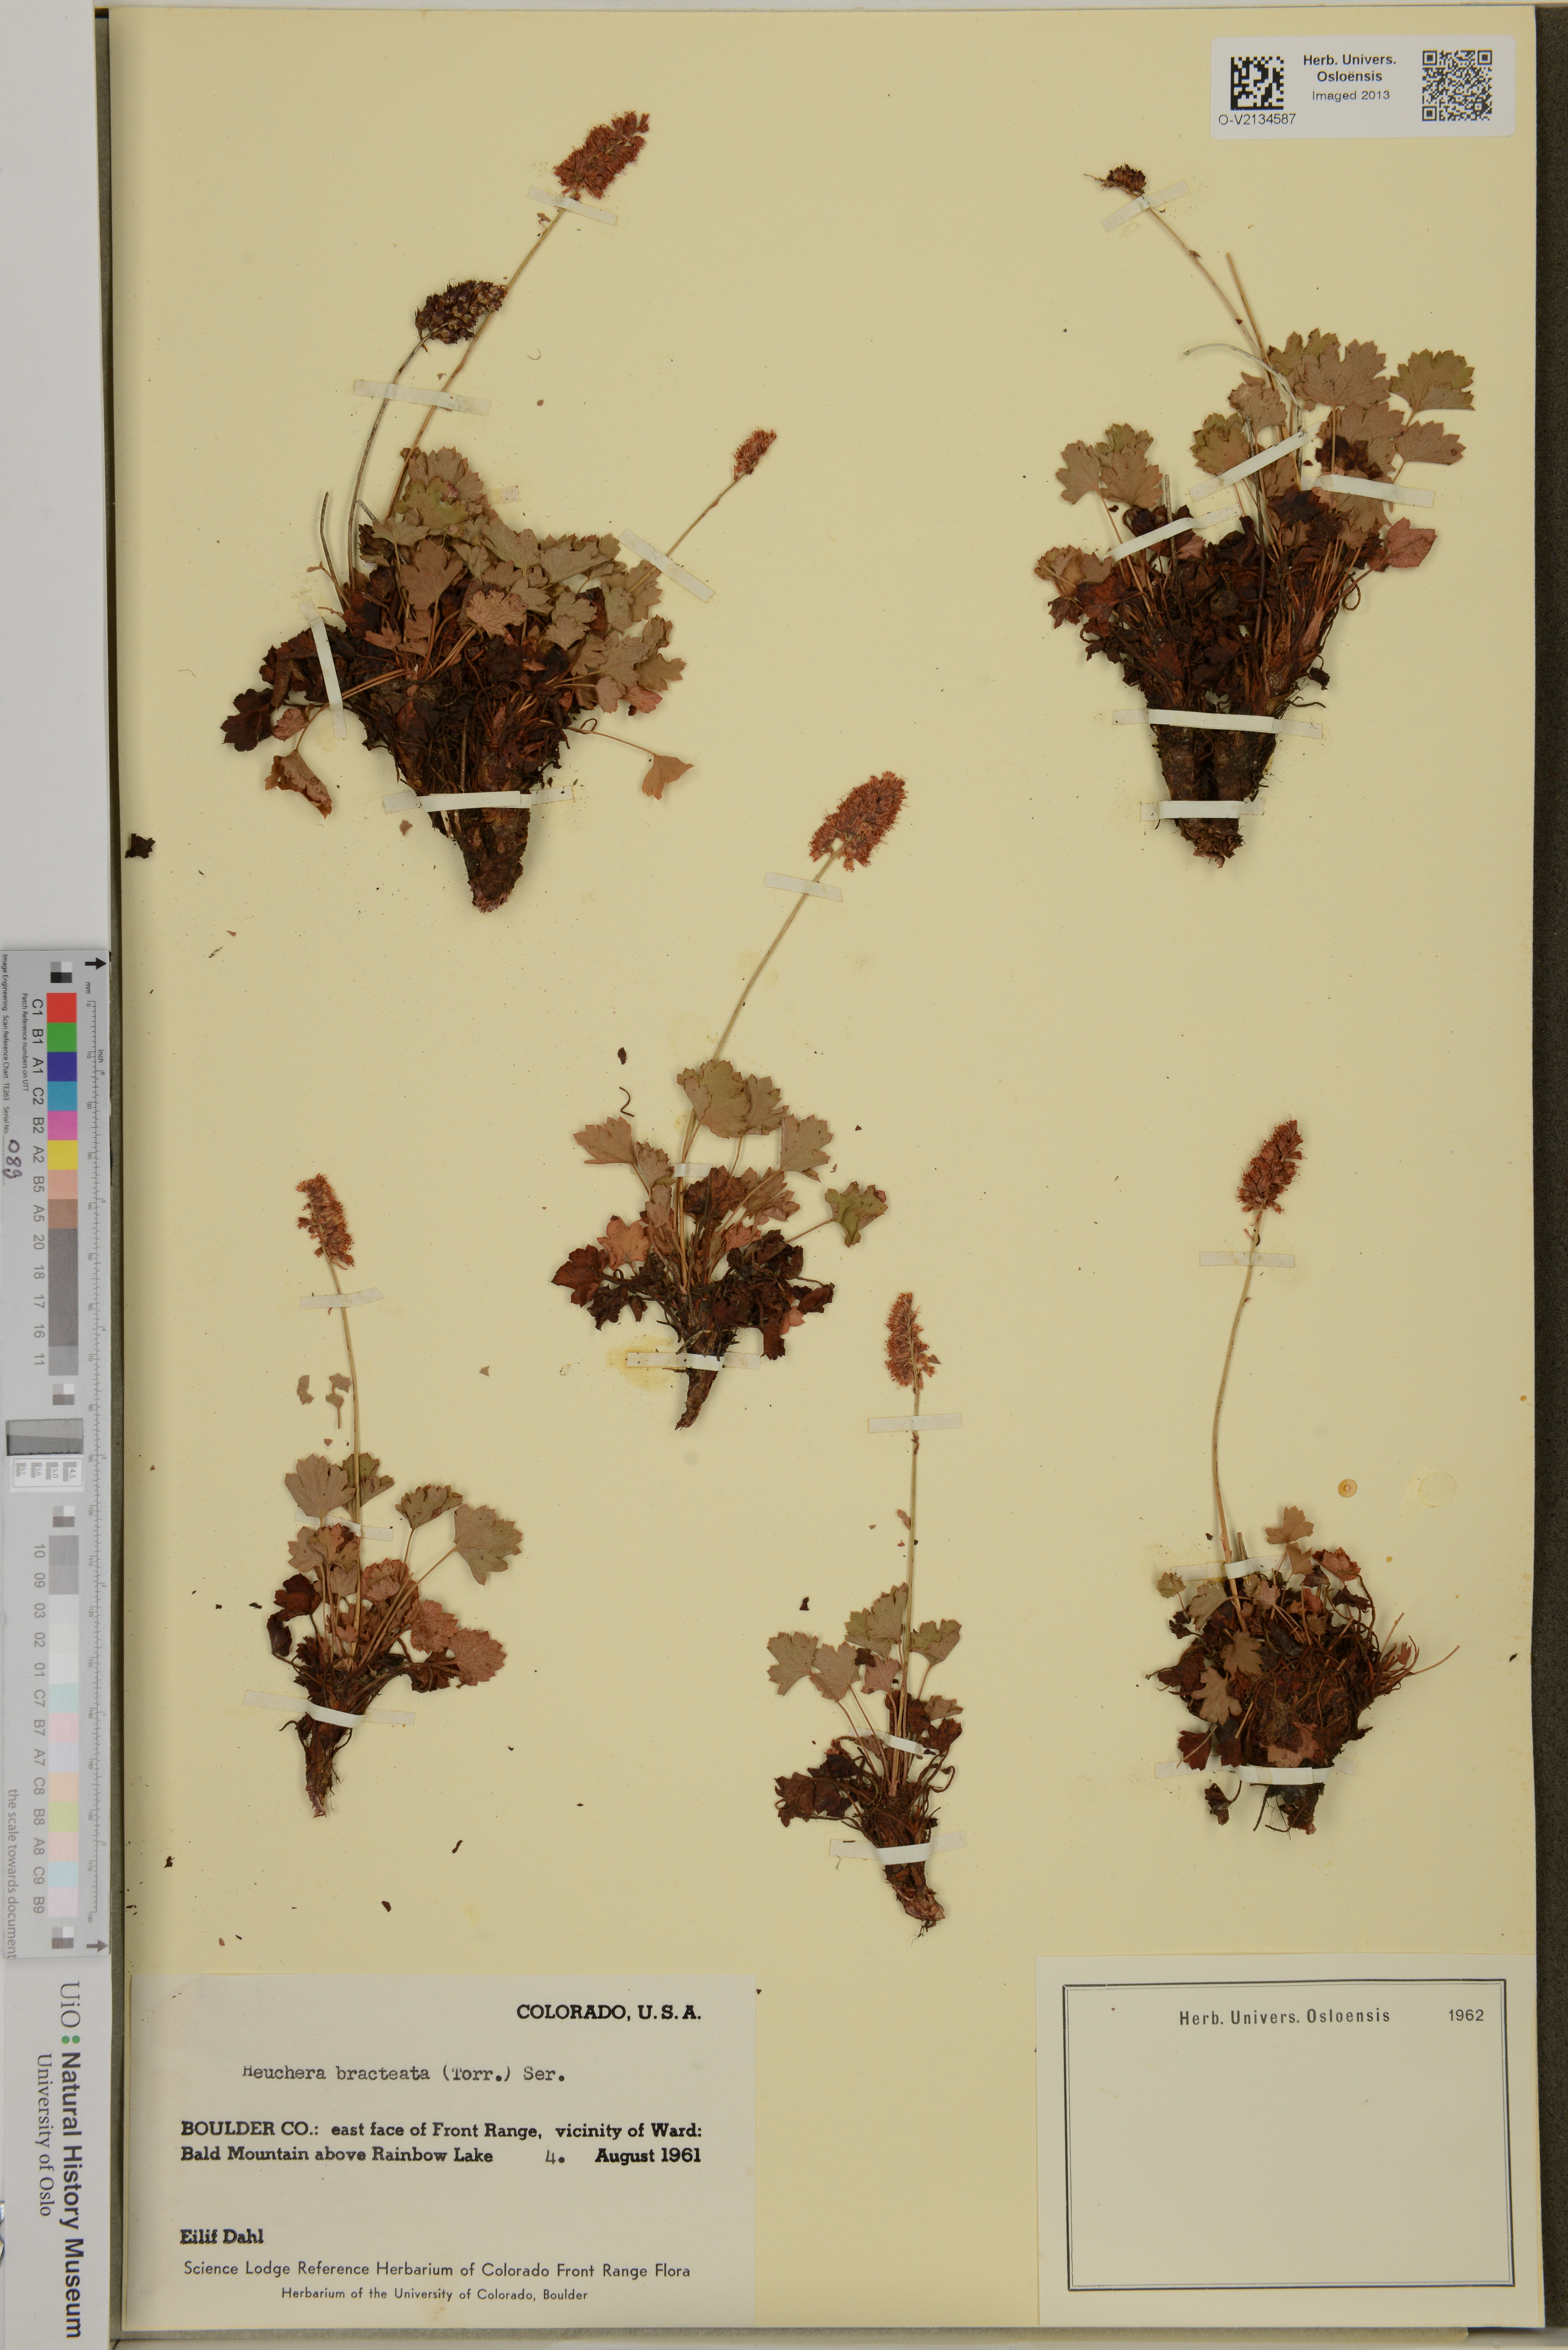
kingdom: Plantae
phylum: Tracheophyta
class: Magnoliopsida
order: Saxifragales
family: Saxifragaceae
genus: Heuchera
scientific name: Heuchera bracteata
